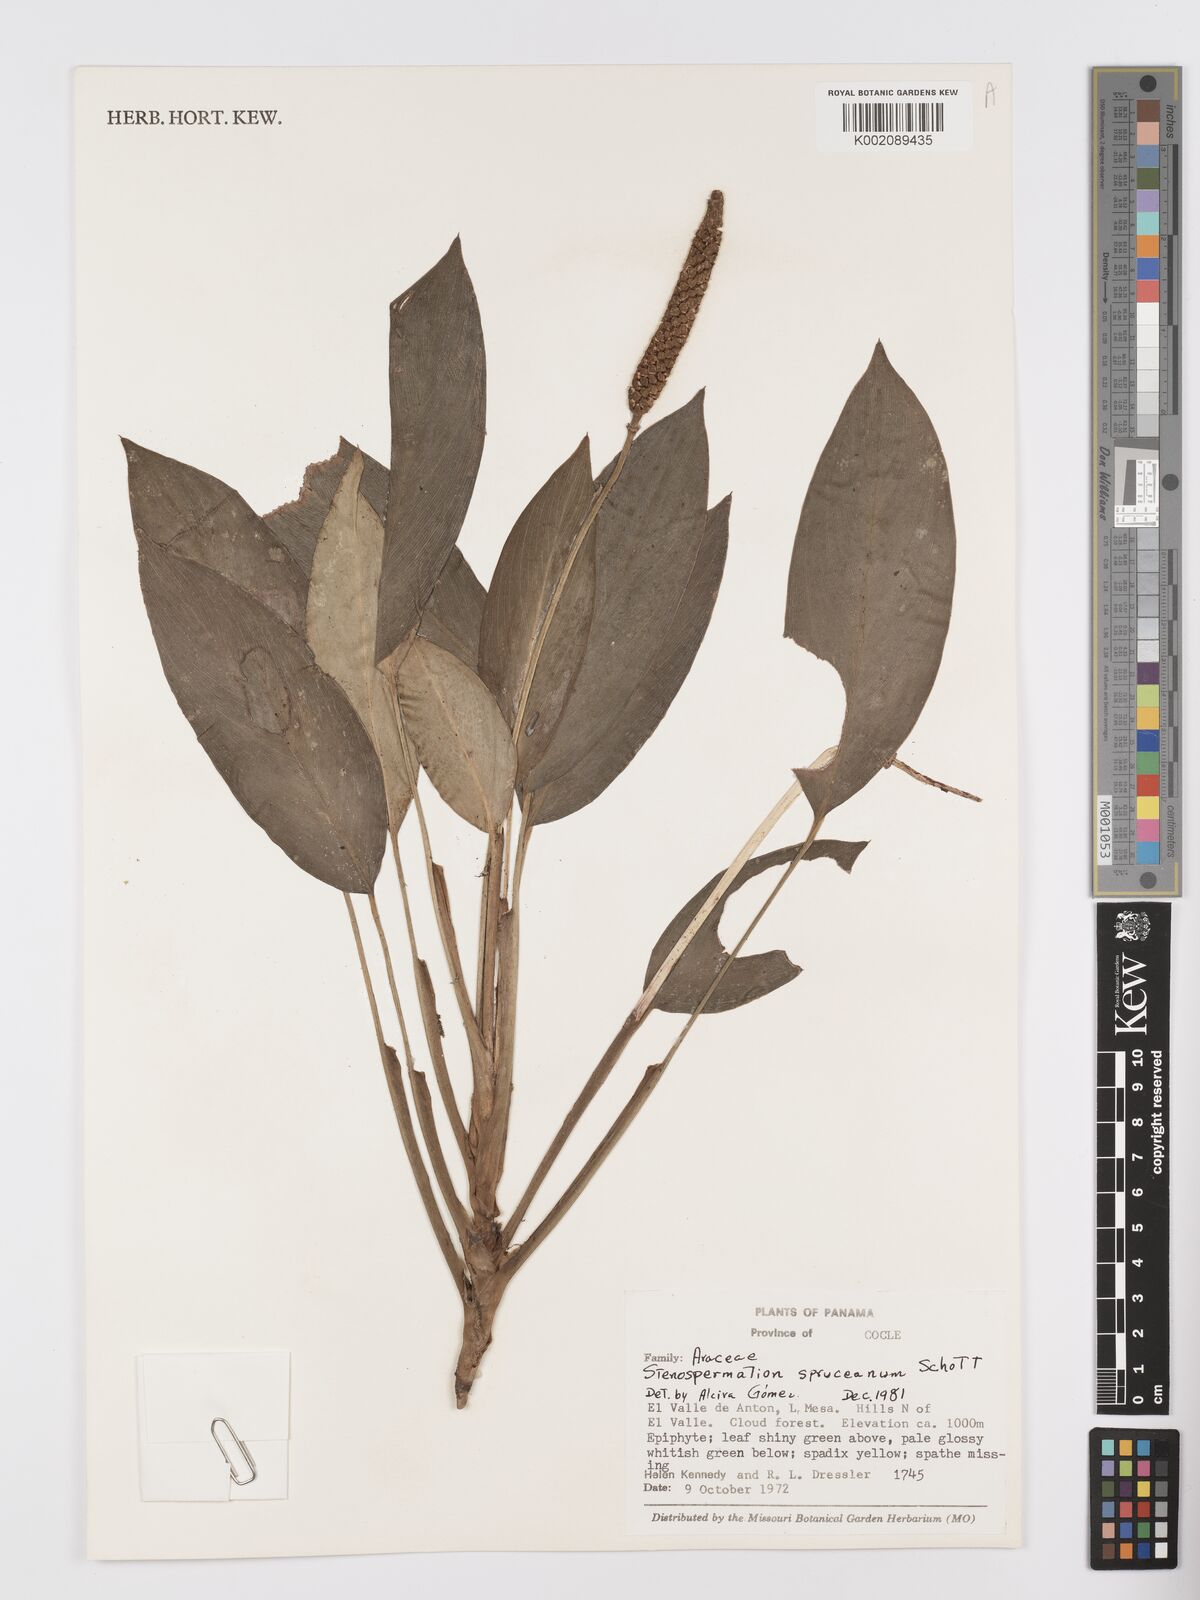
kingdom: Plantae
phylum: Tracheophyta
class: Liliopsida
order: Alismatales
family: Araceae
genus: Stenospermation
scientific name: Stenospermation spruceanum
